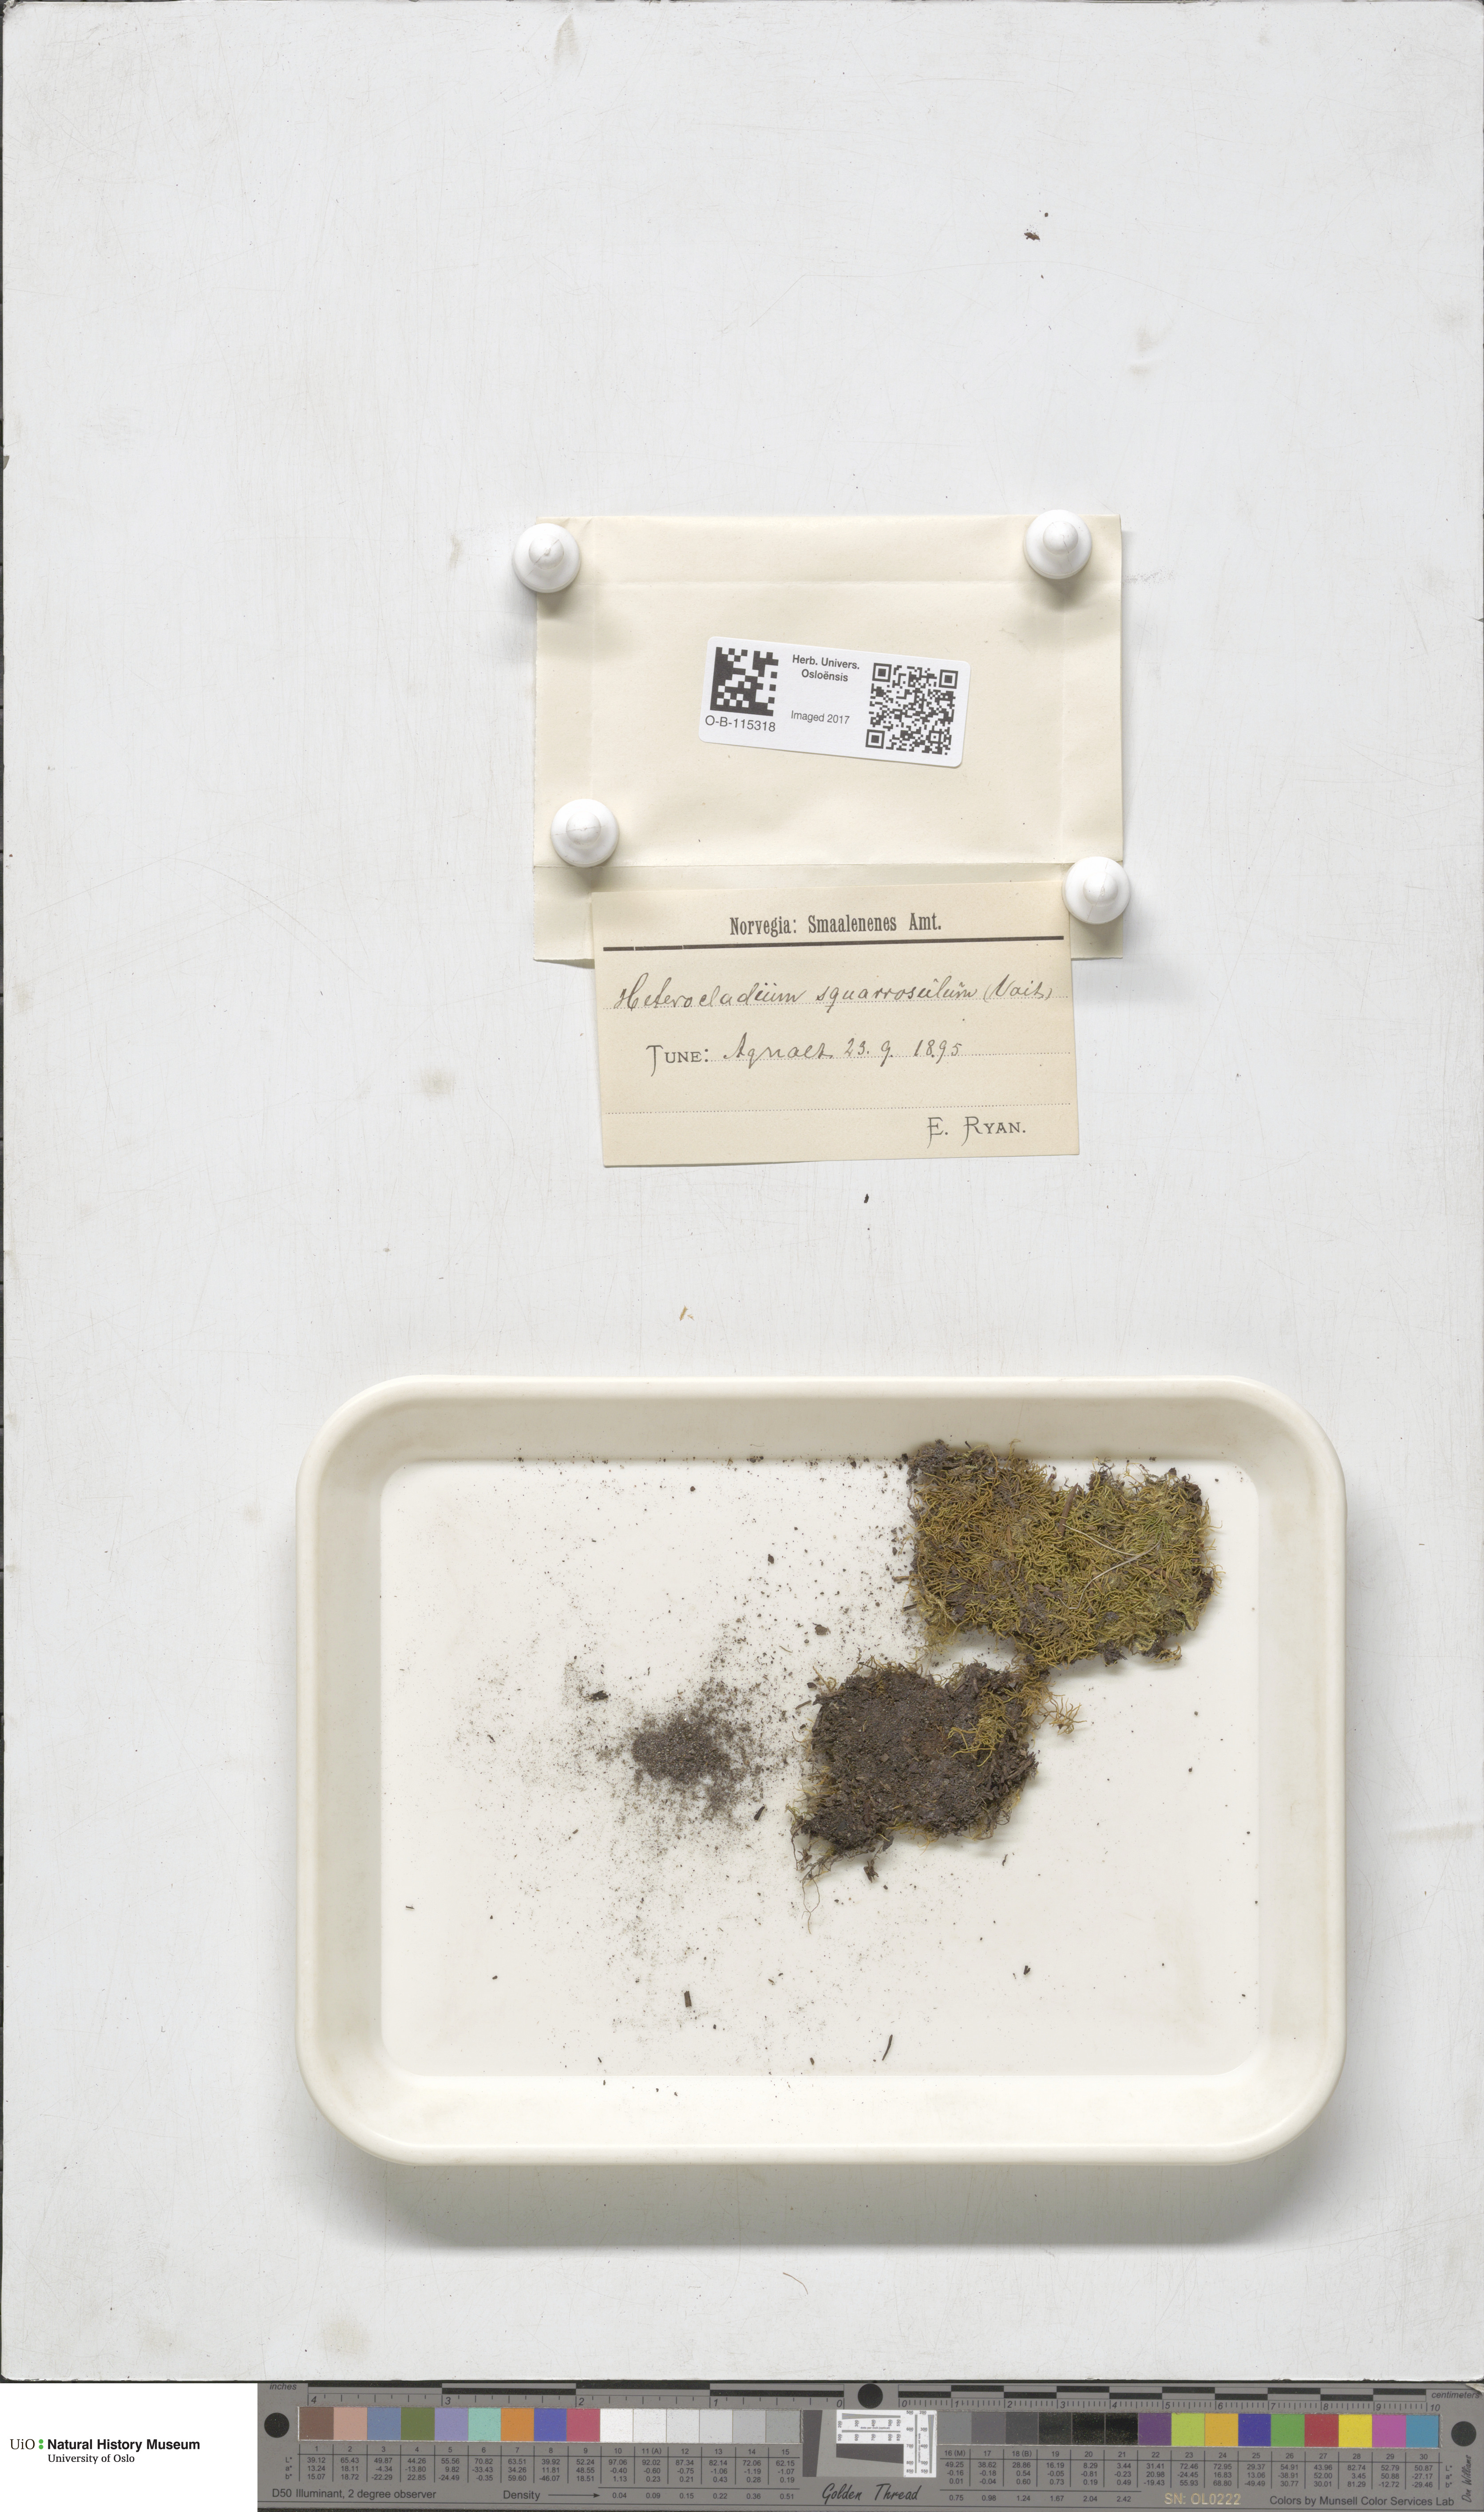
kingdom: Plantae
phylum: Bryophyta
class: Bryopsida
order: Hypnales
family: Heterocladiellaceae
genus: Heterocladiella
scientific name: Heterocladiella dimorpha
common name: Dimorphous tamarisk-moss
